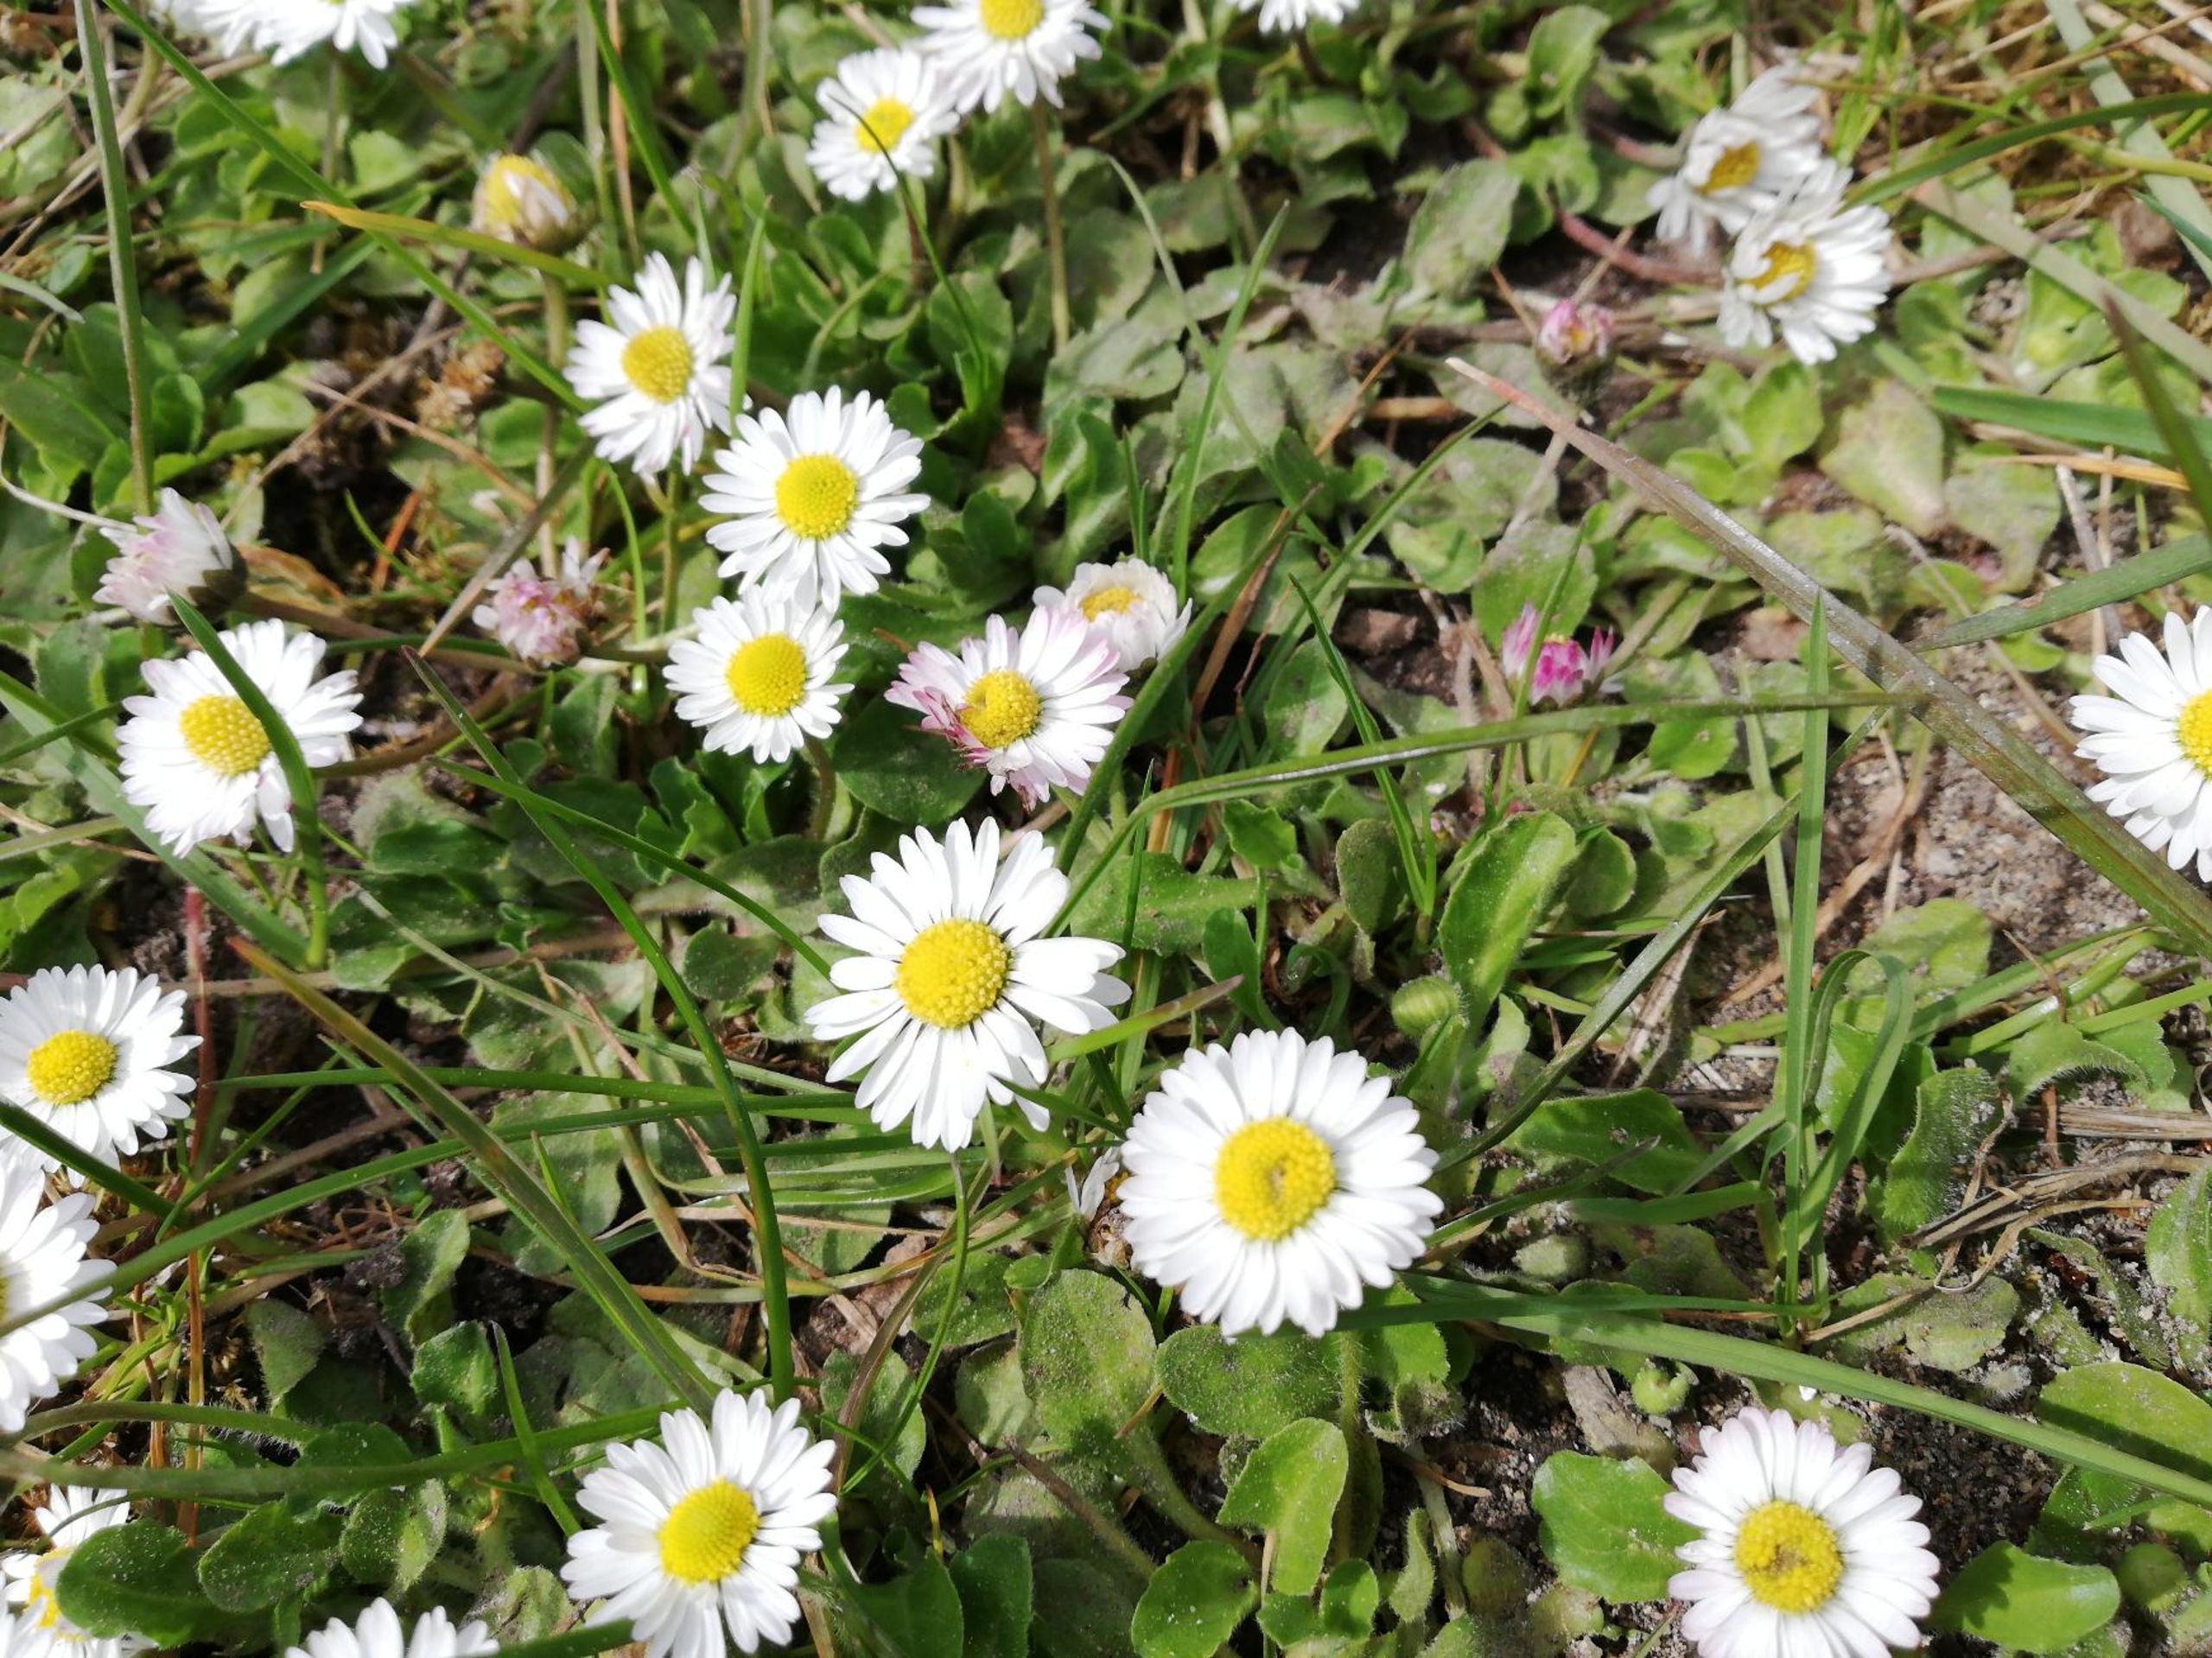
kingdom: Plantae
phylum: Tracheophyta
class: Magnoliopsida
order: Asterales
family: Asteraceae
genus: Bellis
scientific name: Bellis perennis
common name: Tusindfryd
